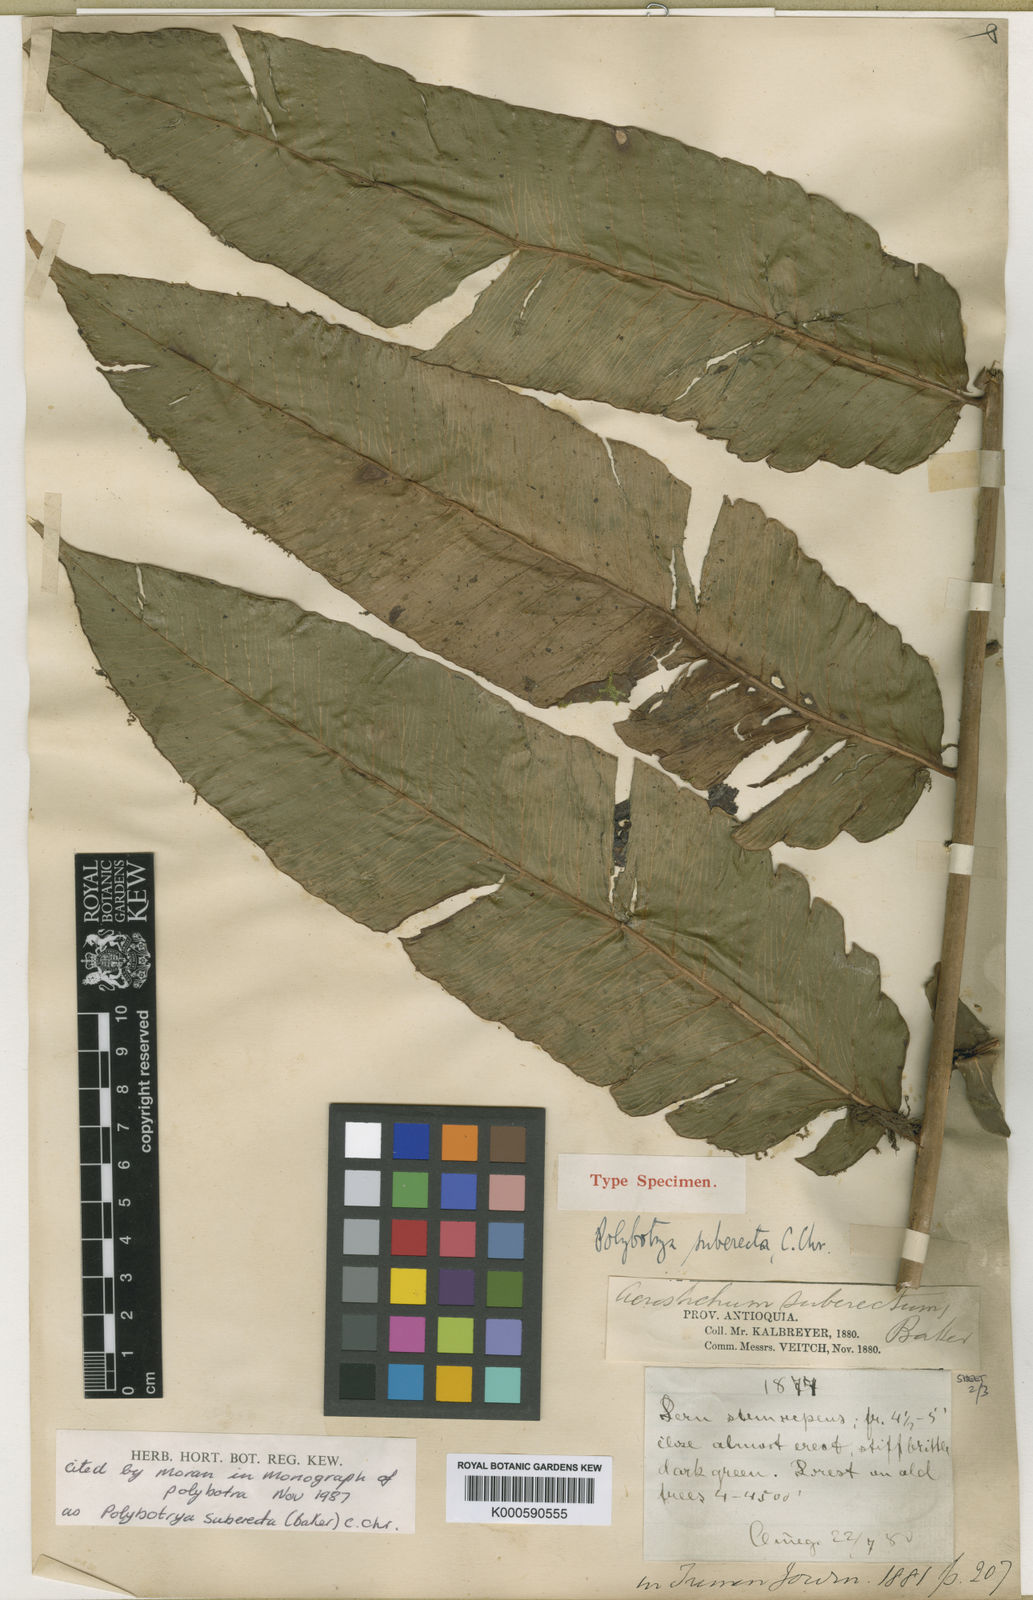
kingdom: Plantae
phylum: Tracheophyta
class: Polypodiopsida
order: Polypodiales
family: Dryopteridaceae
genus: Polybotrya
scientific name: Polybotrya suberecta
